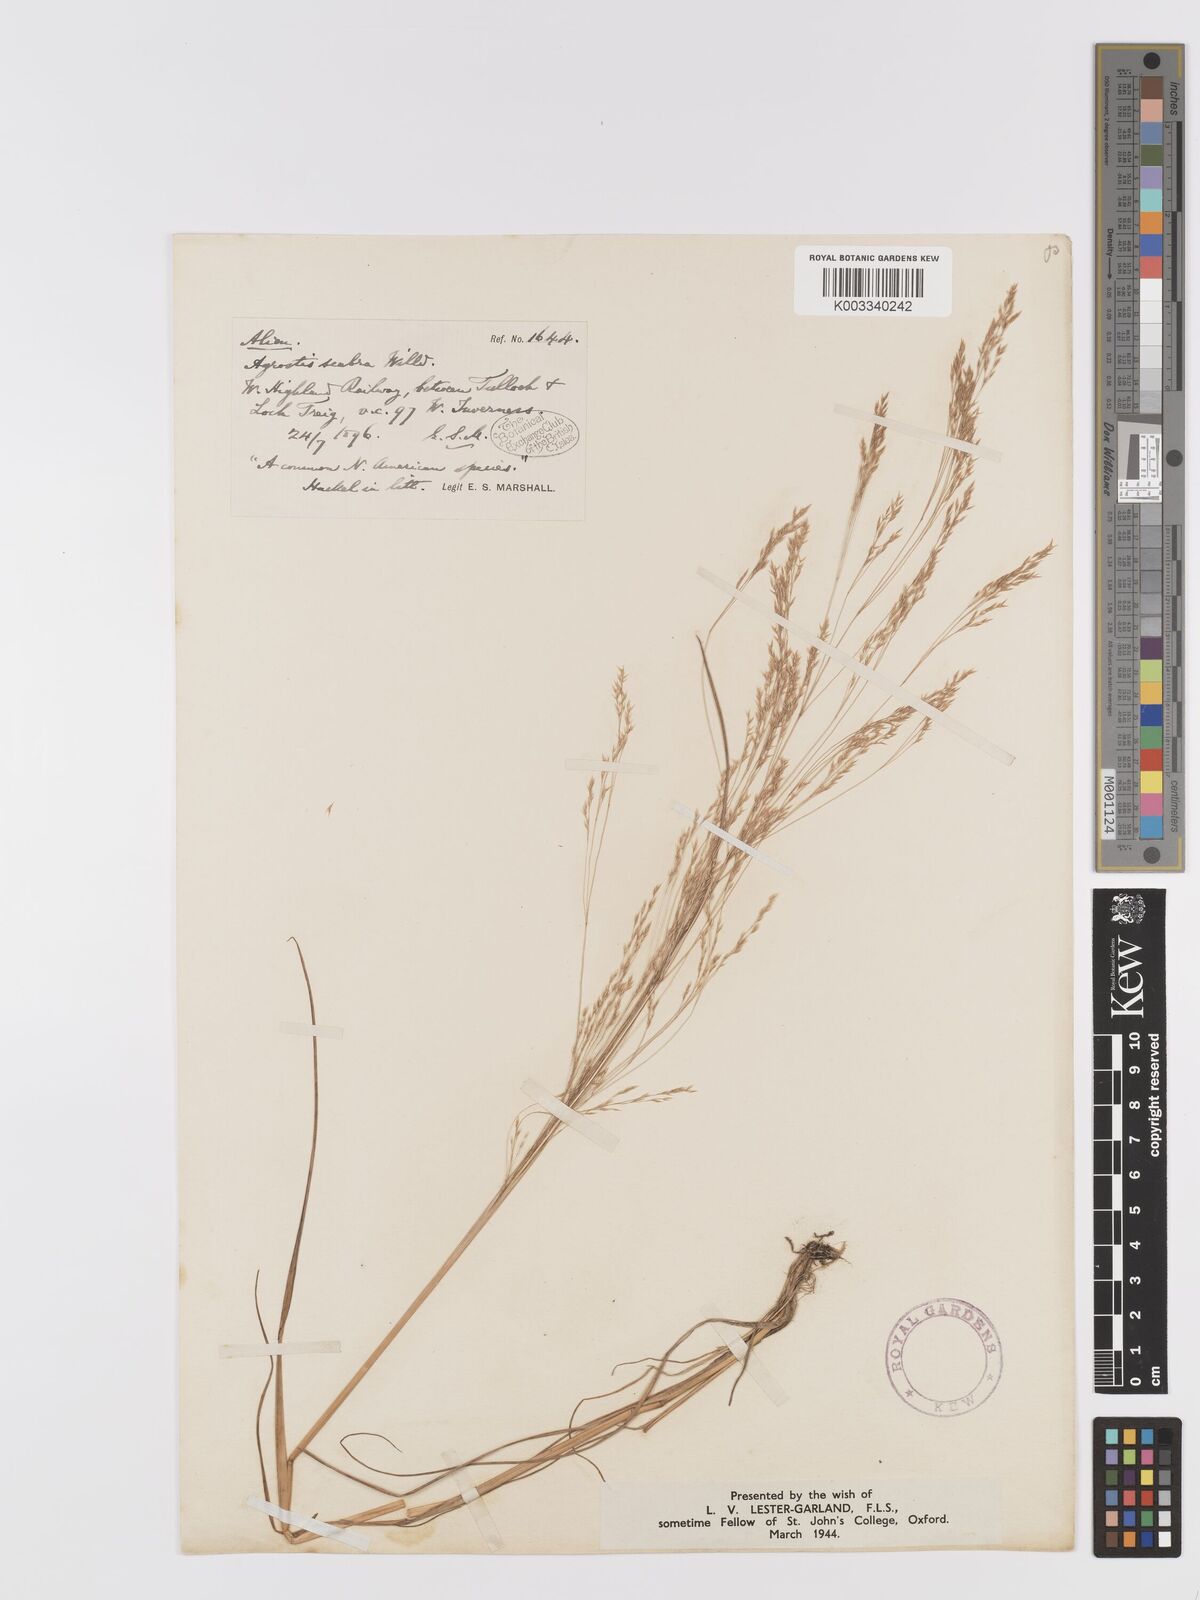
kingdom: Plantae
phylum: Tracheophyta
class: Liliopsida
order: Poales
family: Poaceae
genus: Agrostis
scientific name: Agrostis scabra
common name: Rough bent
